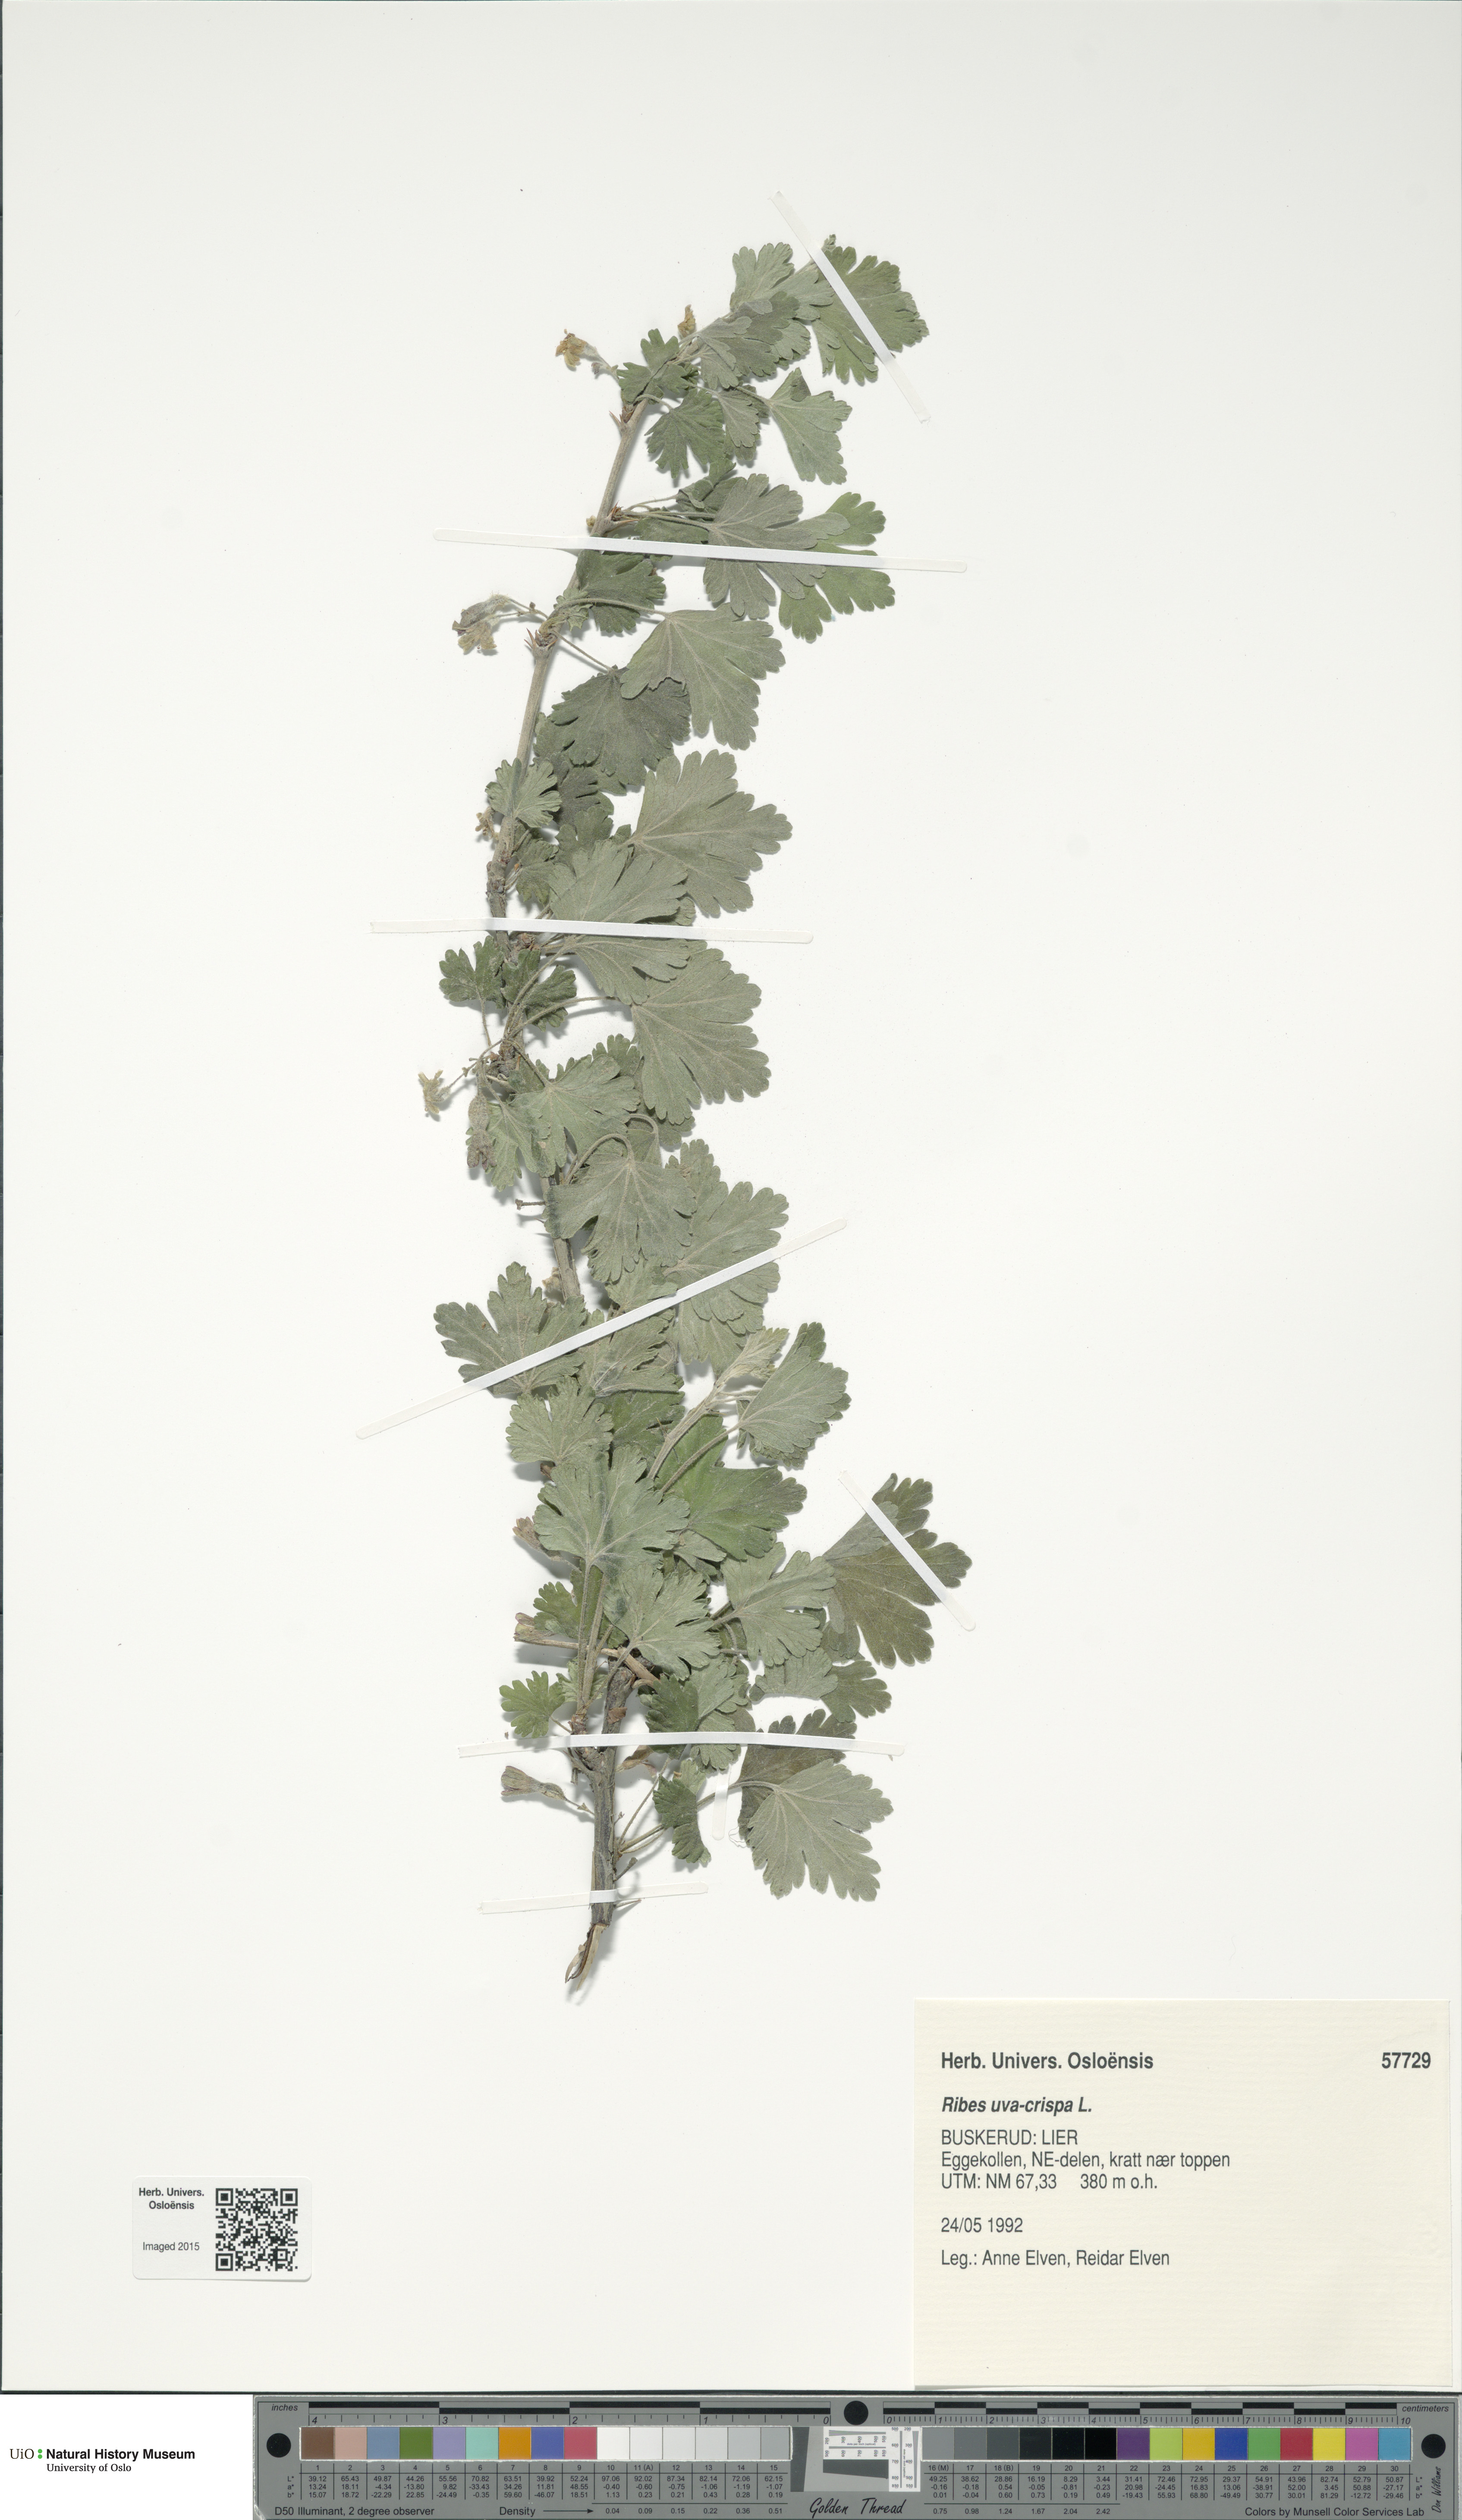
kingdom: Plantae
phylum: Tracheophyta
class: Magnoliopsida
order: Saxifragales
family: Grossulariaceae
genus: Ribes
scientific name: Ribes uva-crispa
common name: Gooseberry
